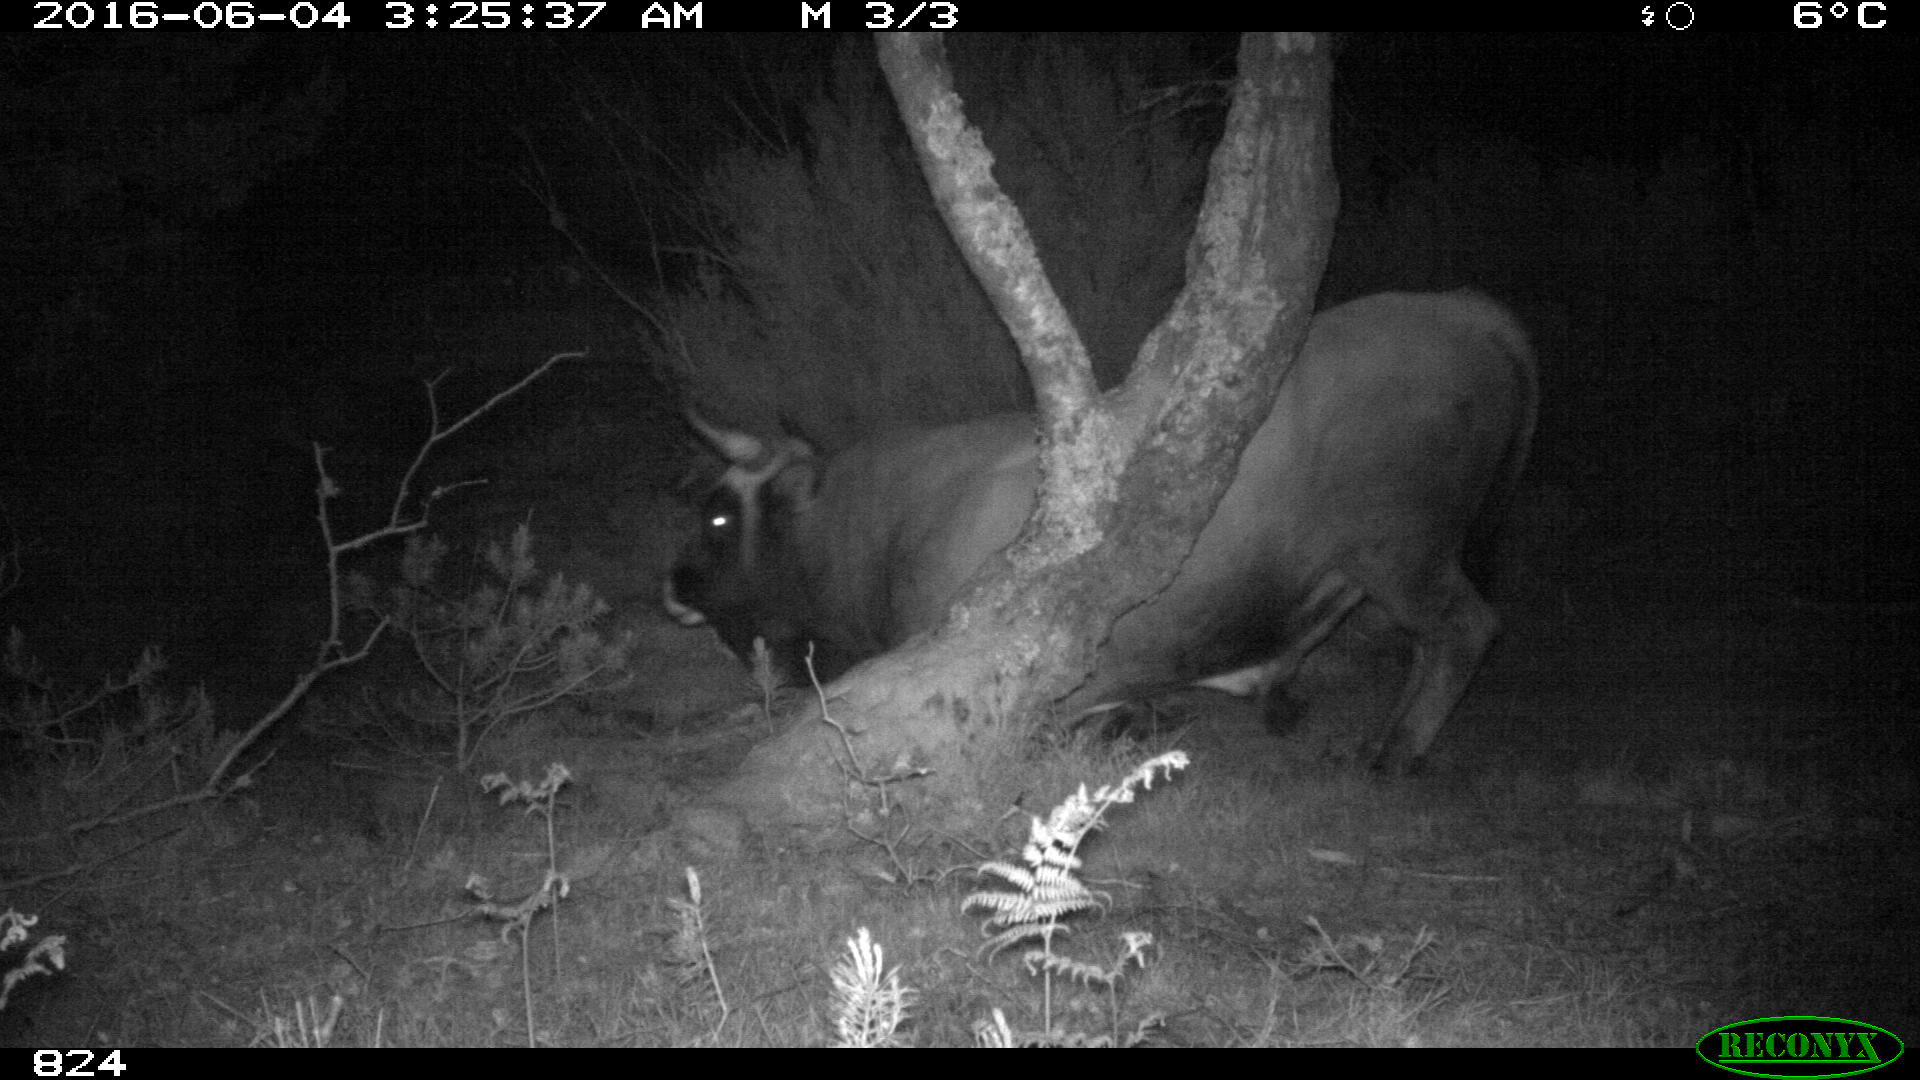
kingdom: Animalia
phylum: Chordata
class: Mammalia
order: Artiodactyla
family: Bovidae
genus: Bos
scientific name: Bos taurus
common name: Domesticated cattle
